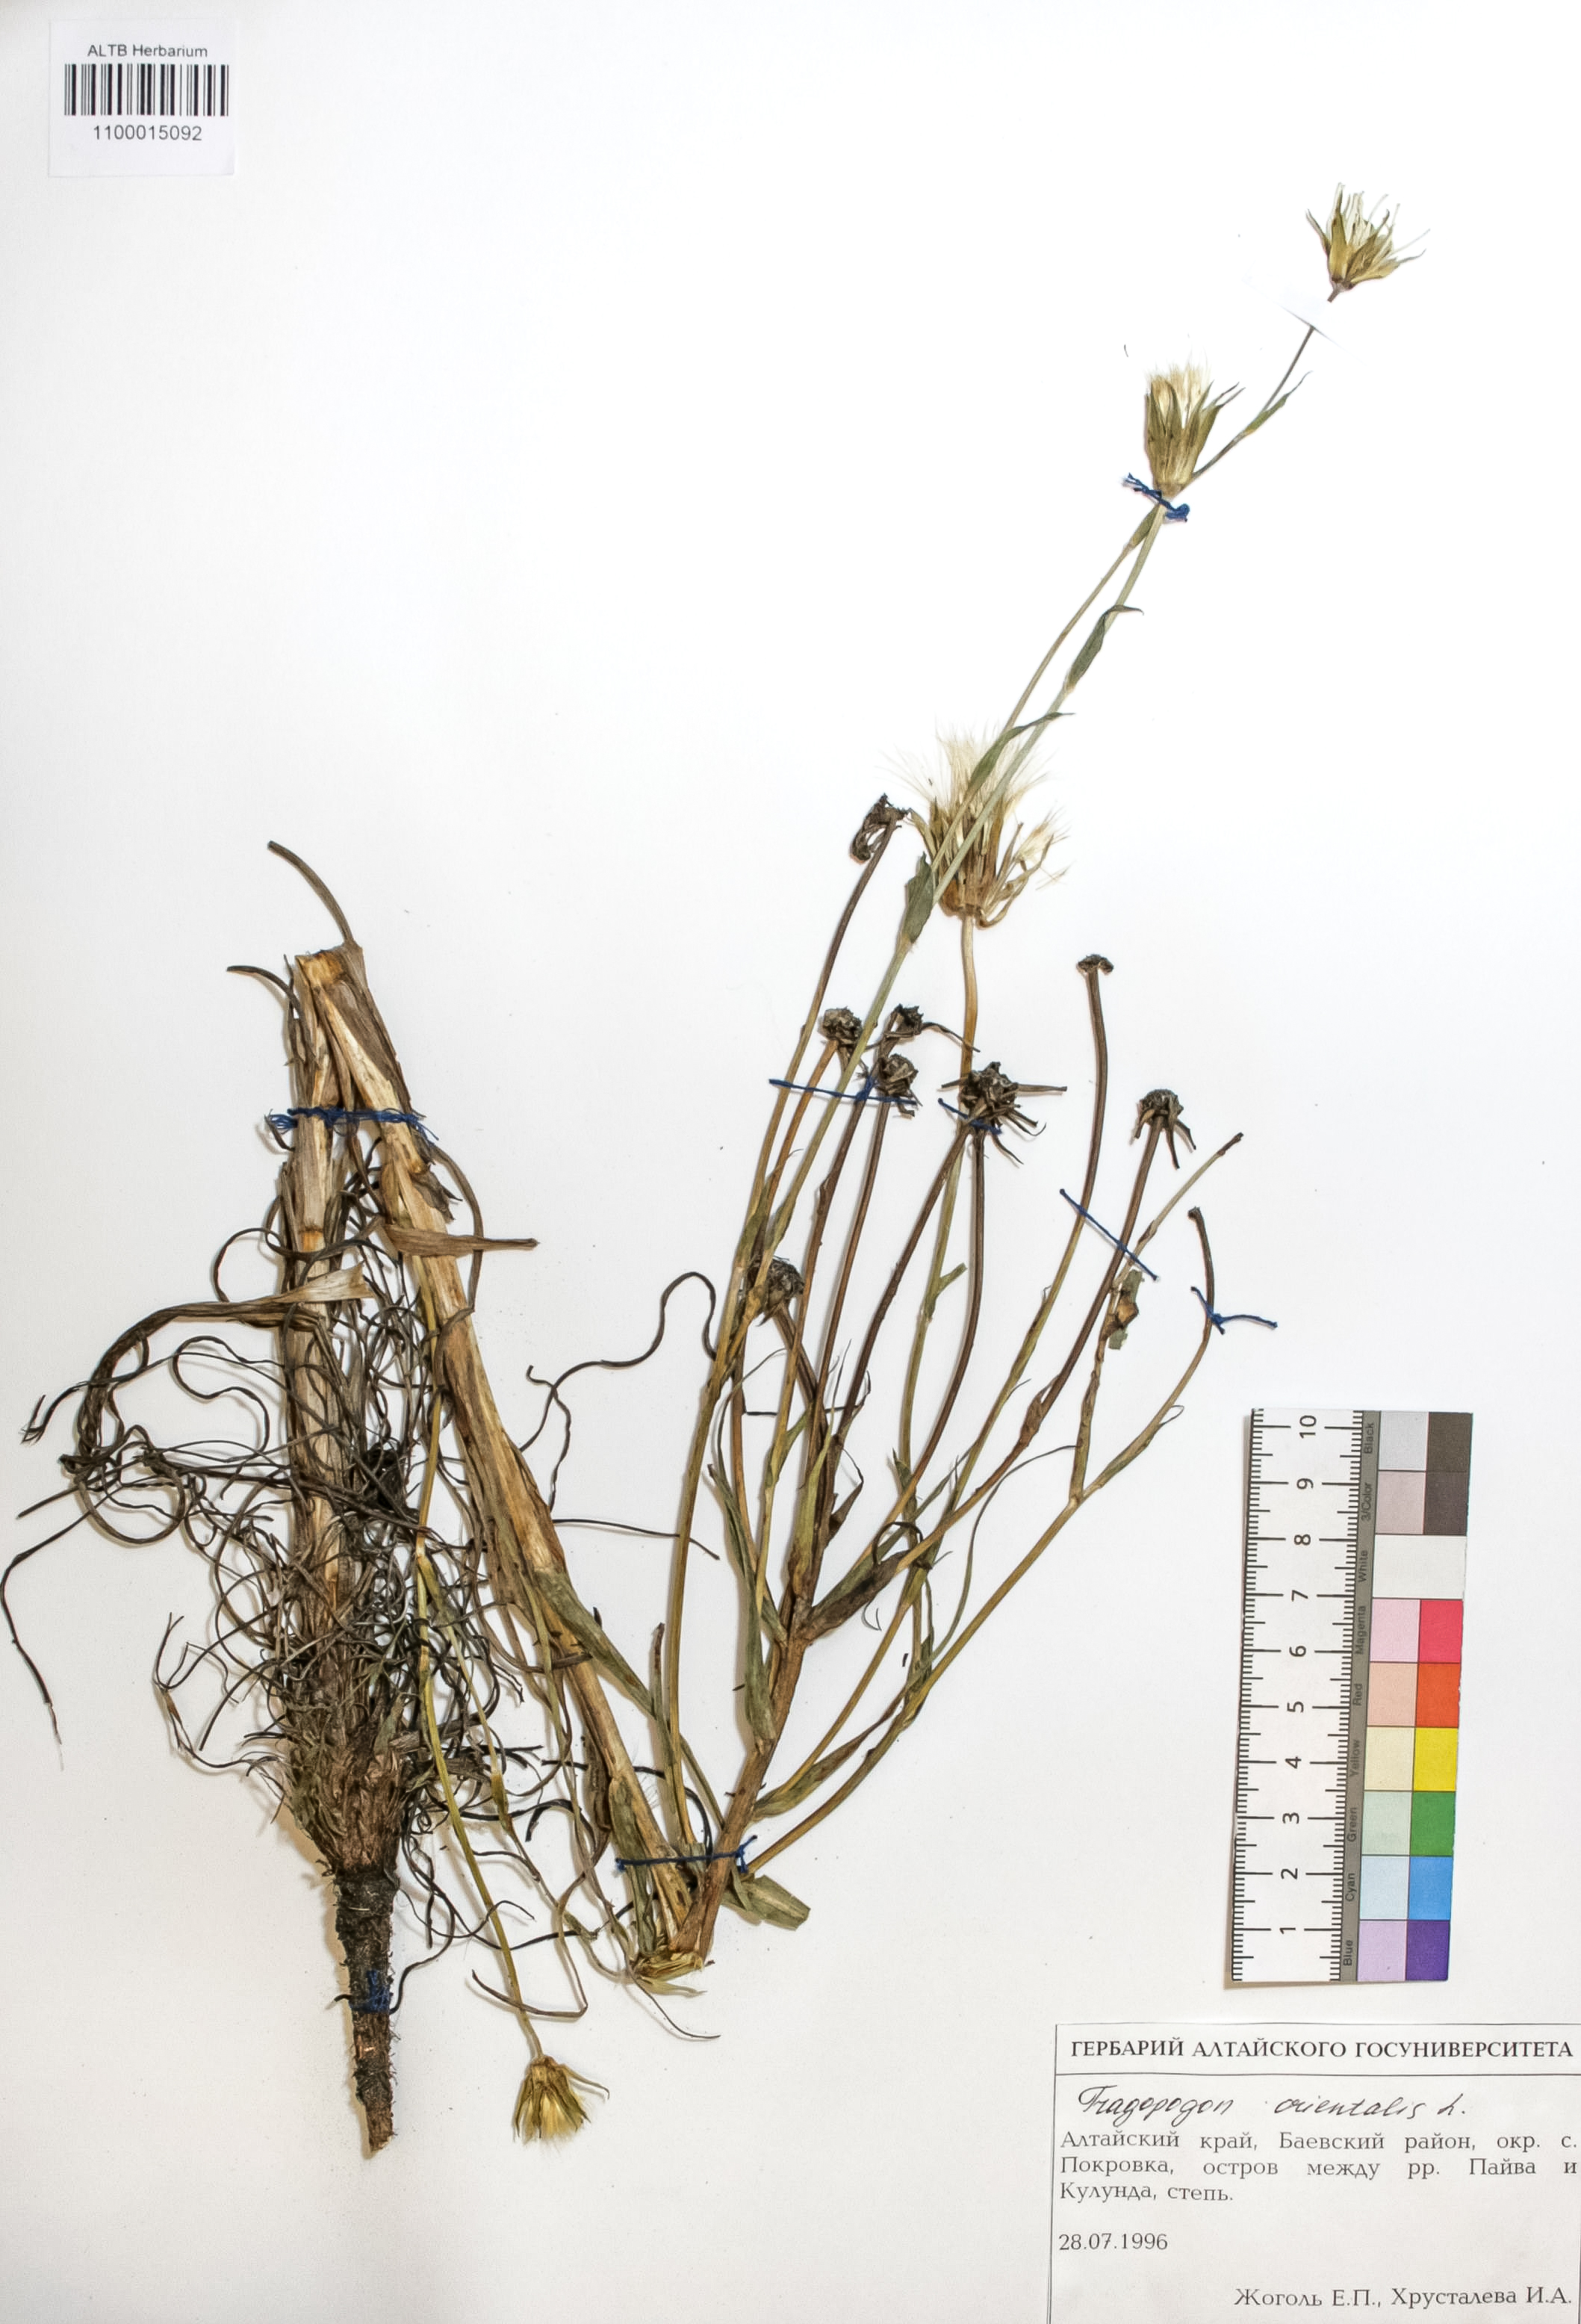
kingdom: Plantae
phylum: Tracheophyta
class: Magnoliopsida
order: Asterales
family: Asteraceae
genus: Tragopogon
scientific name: Tragopogon orientalis
